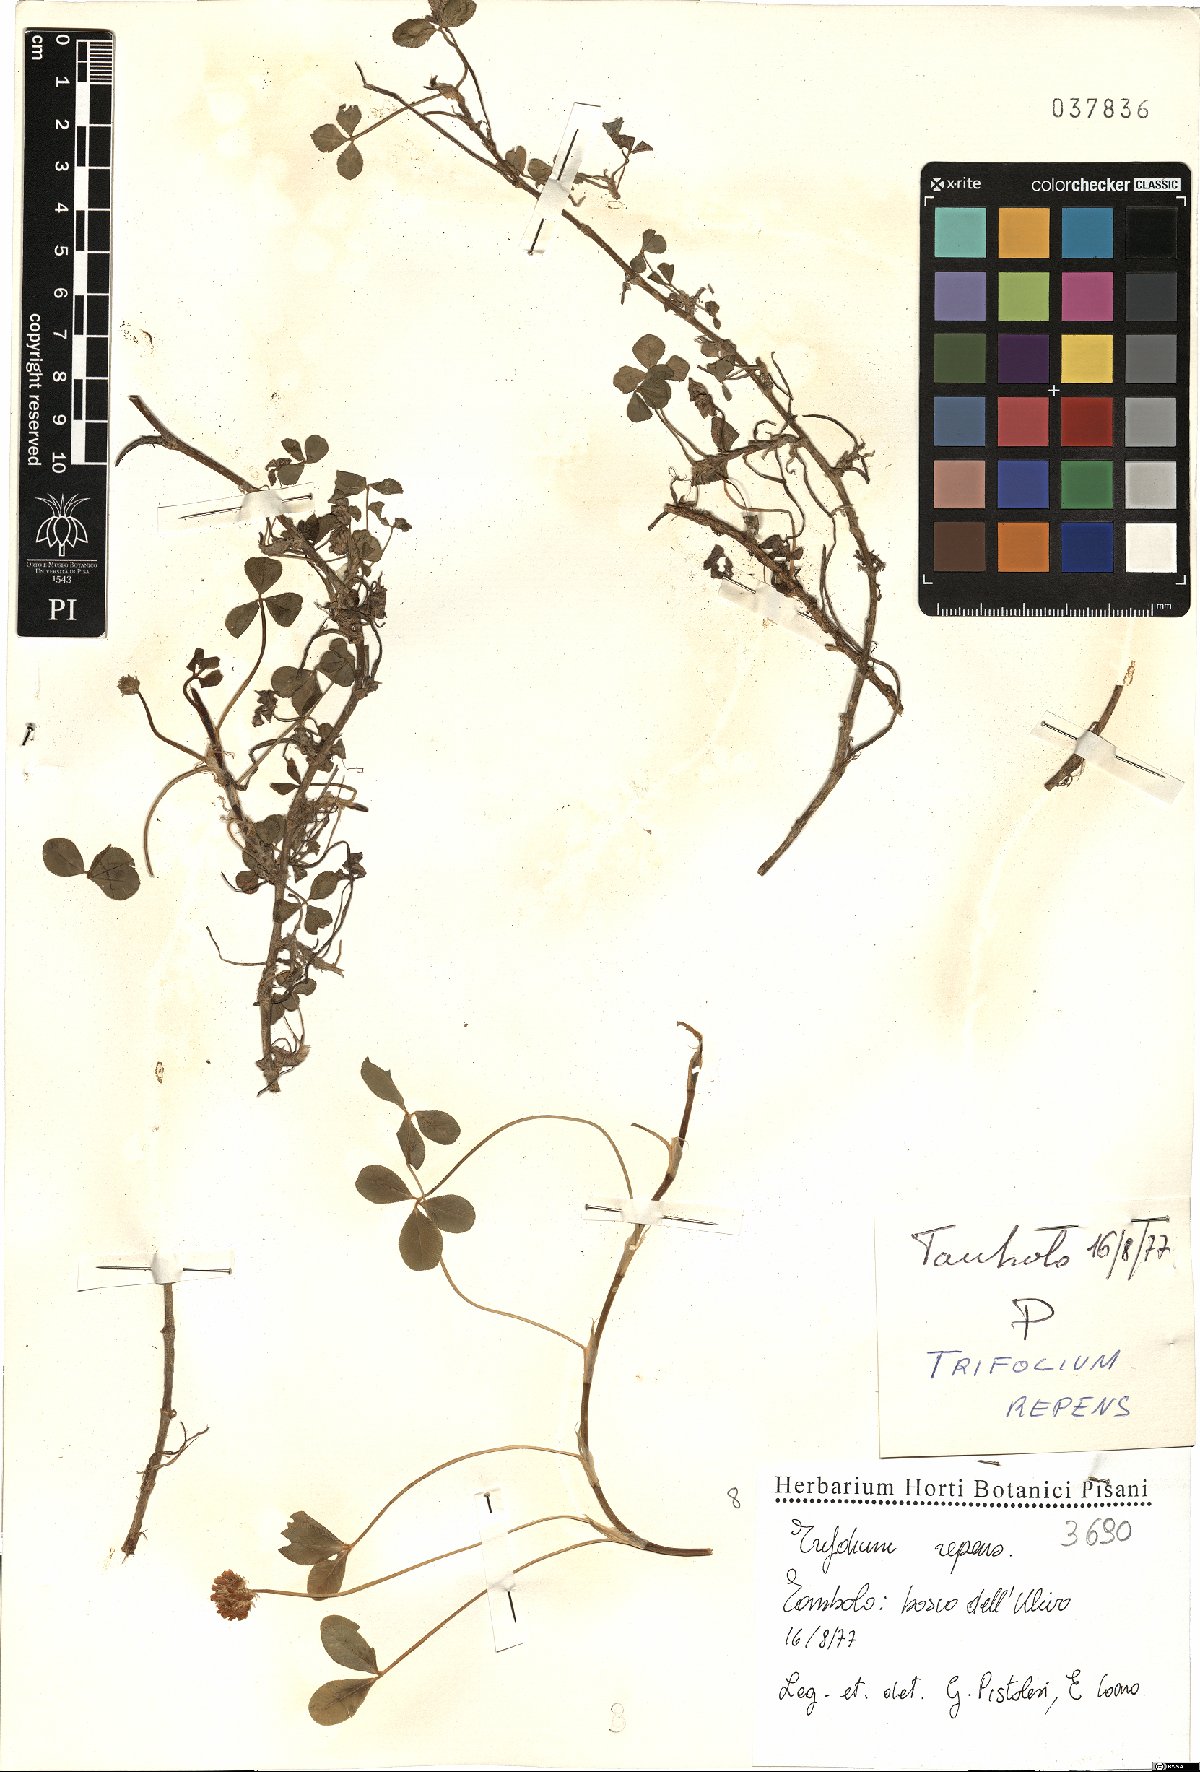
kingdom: Plantae
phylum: Tracheophyta
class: Magnoliopsida
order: Fabales
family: Fabaceae
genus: Trifolium
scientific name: Trifolium repens
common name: White clover
